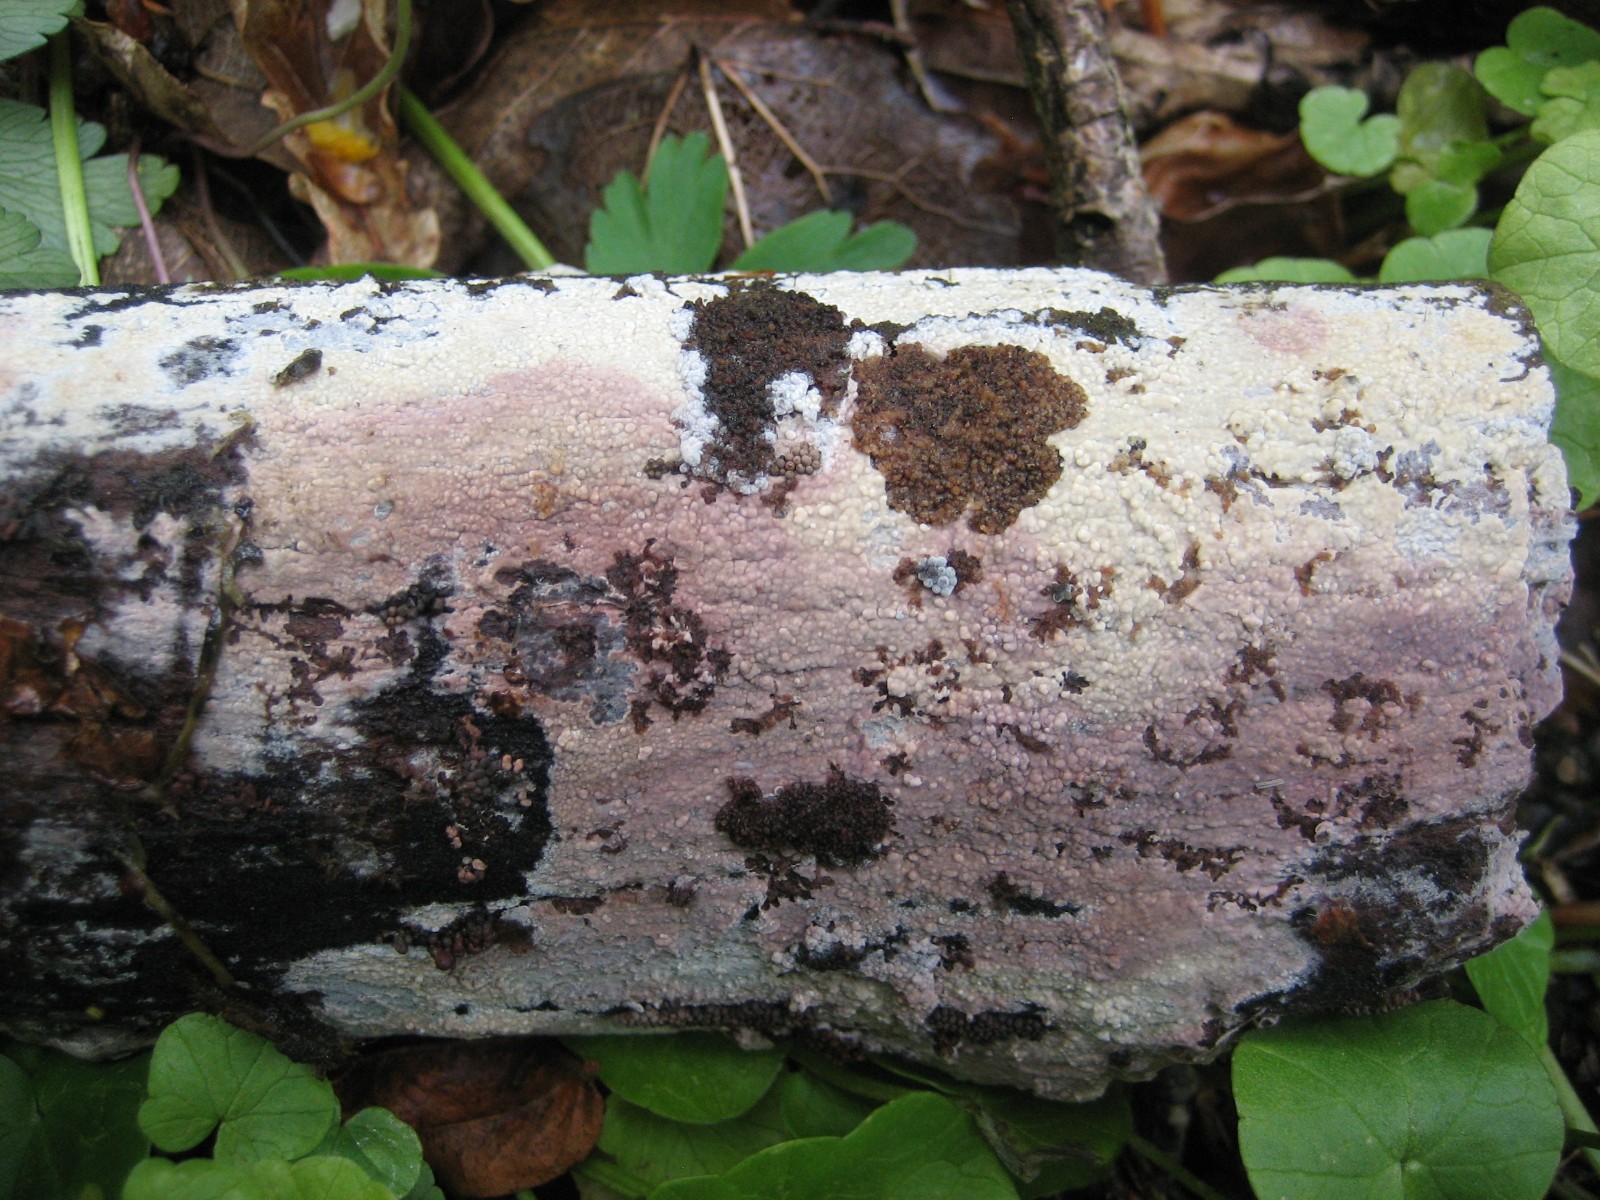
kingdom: Fungi
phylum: Basidiomycota
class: Agaricomycetes
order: Polyporales
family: Hyphodermataceae
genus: Hyphoderma
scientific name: Hyphoderma roseocremeum
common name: lillaplettet kalkskind
